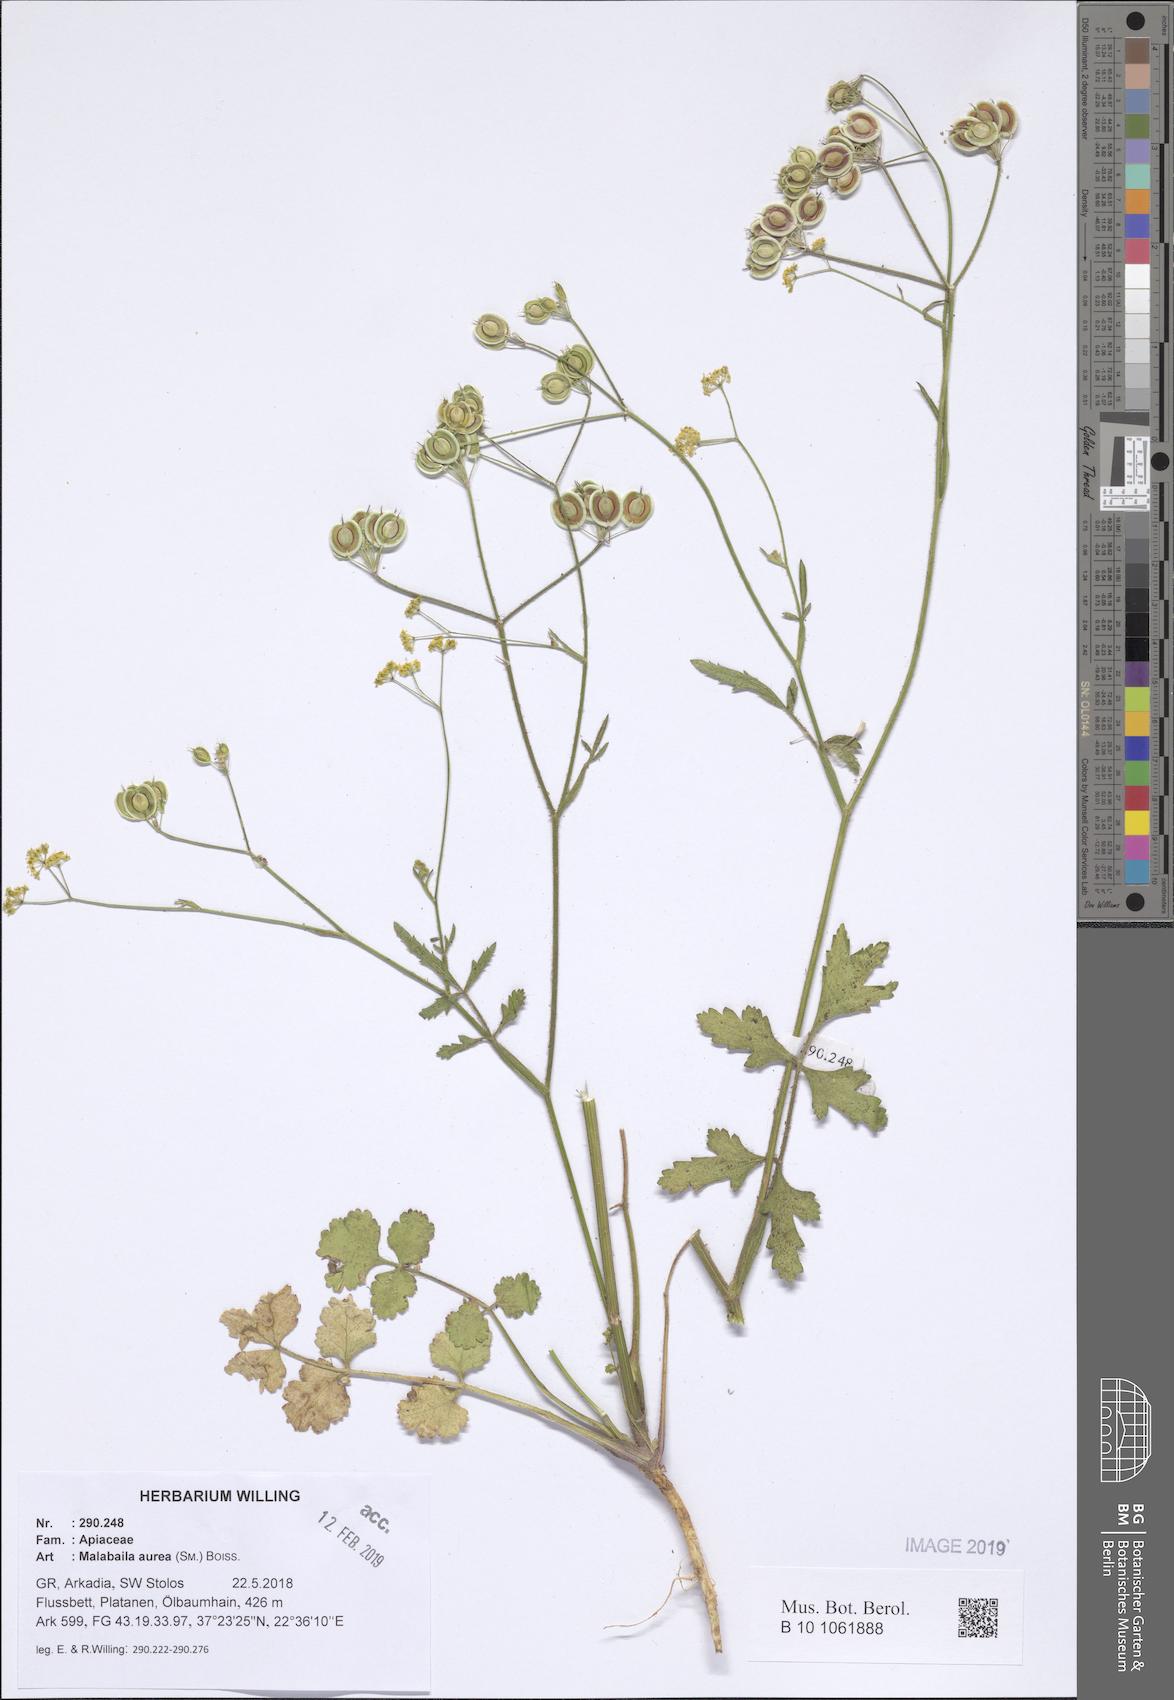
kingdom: Plantae
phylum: Tracheophyta
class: Magnoliopsida
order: Apiales
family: Apiaceae
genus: Leiotulus
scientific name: Leiotulus aureus
